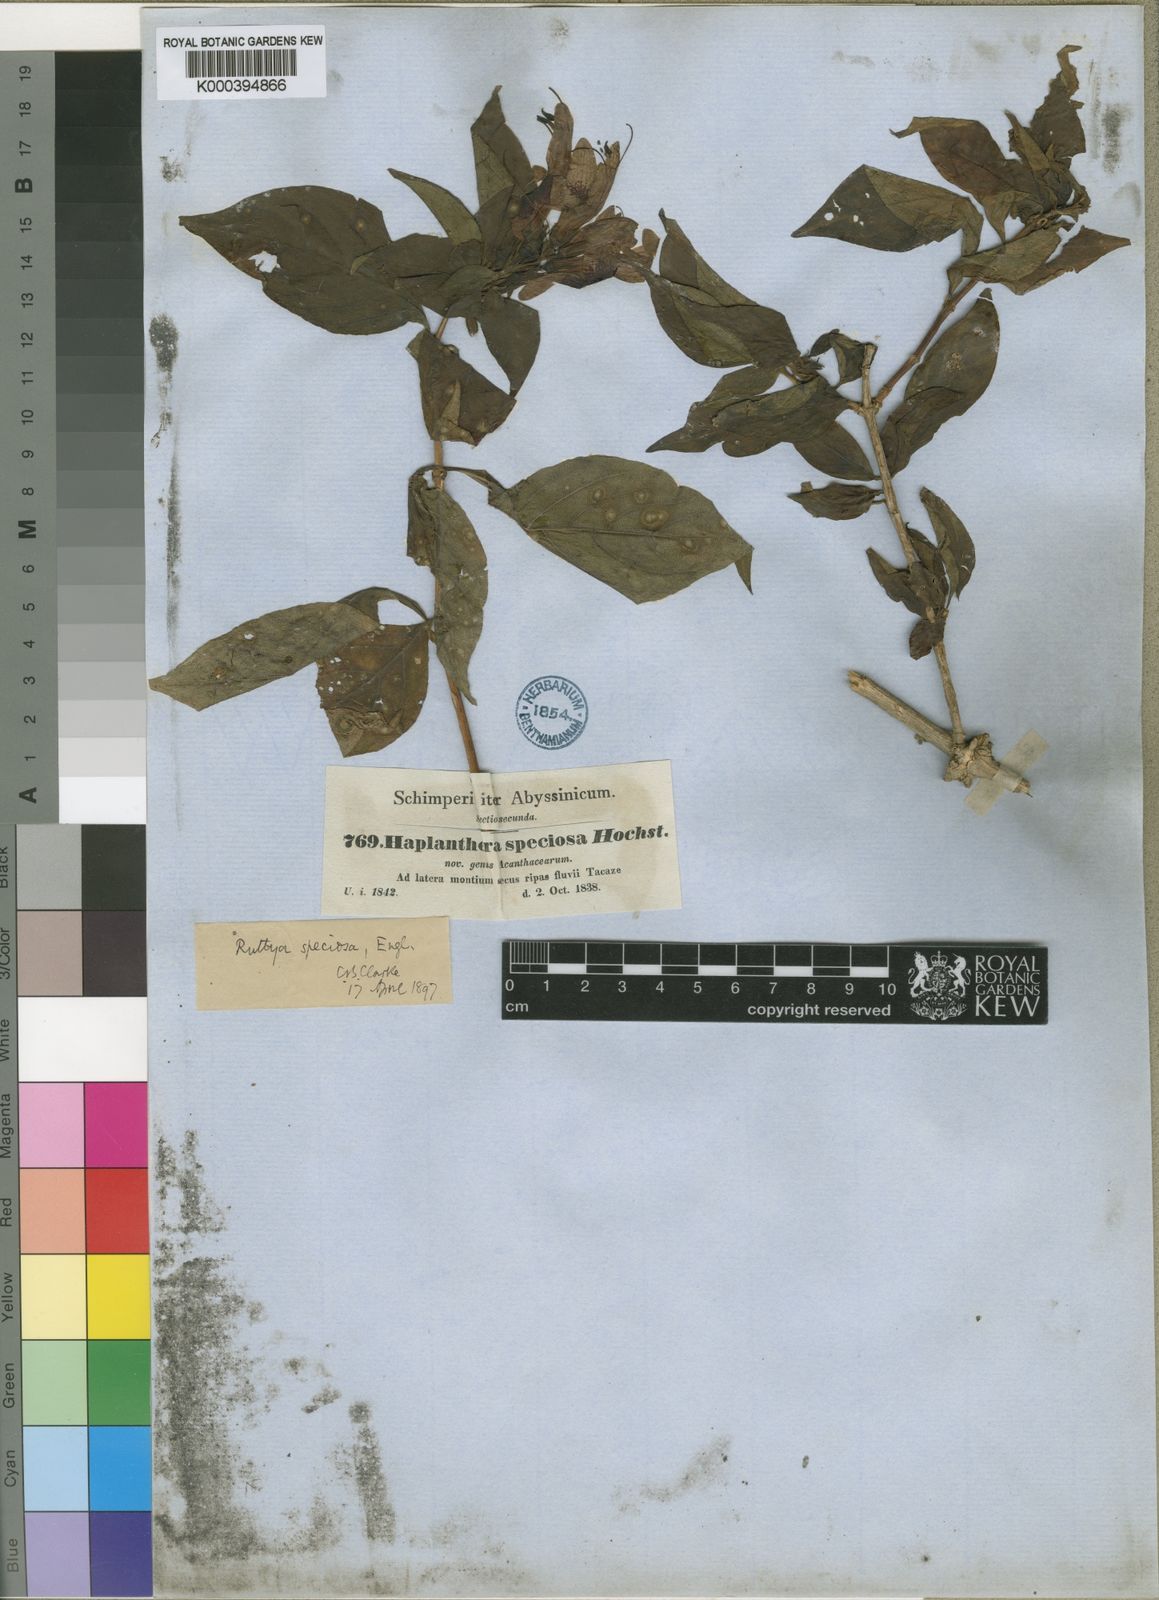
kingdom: Plantae
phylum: Tracheophyta
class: Magnoliopsida
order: Lamiales
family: Acanthaceae
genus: Ruttya
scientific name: Ruttya speciosa
